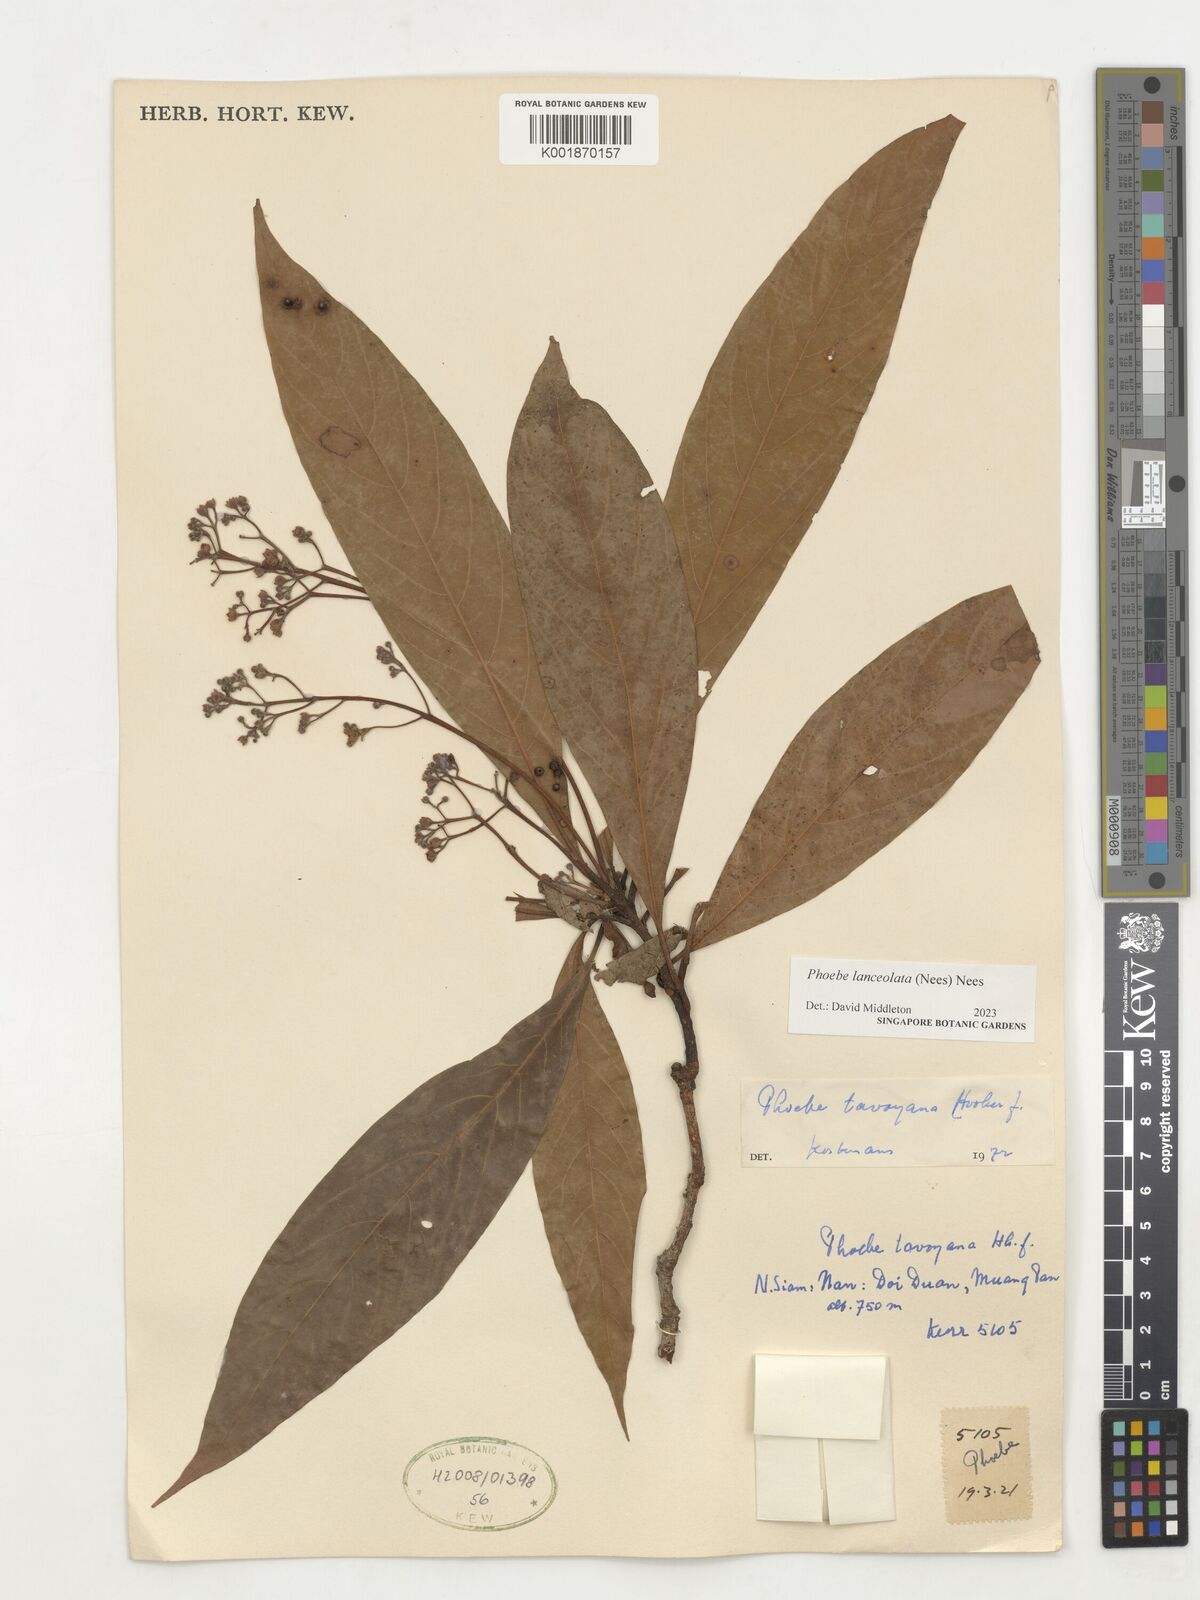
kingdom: Plantae
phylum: Tracheophyta
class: Magnoliopsida
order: Laurales
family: Lauraceae
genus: Phoebe
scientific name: Phoebe lanceolata
